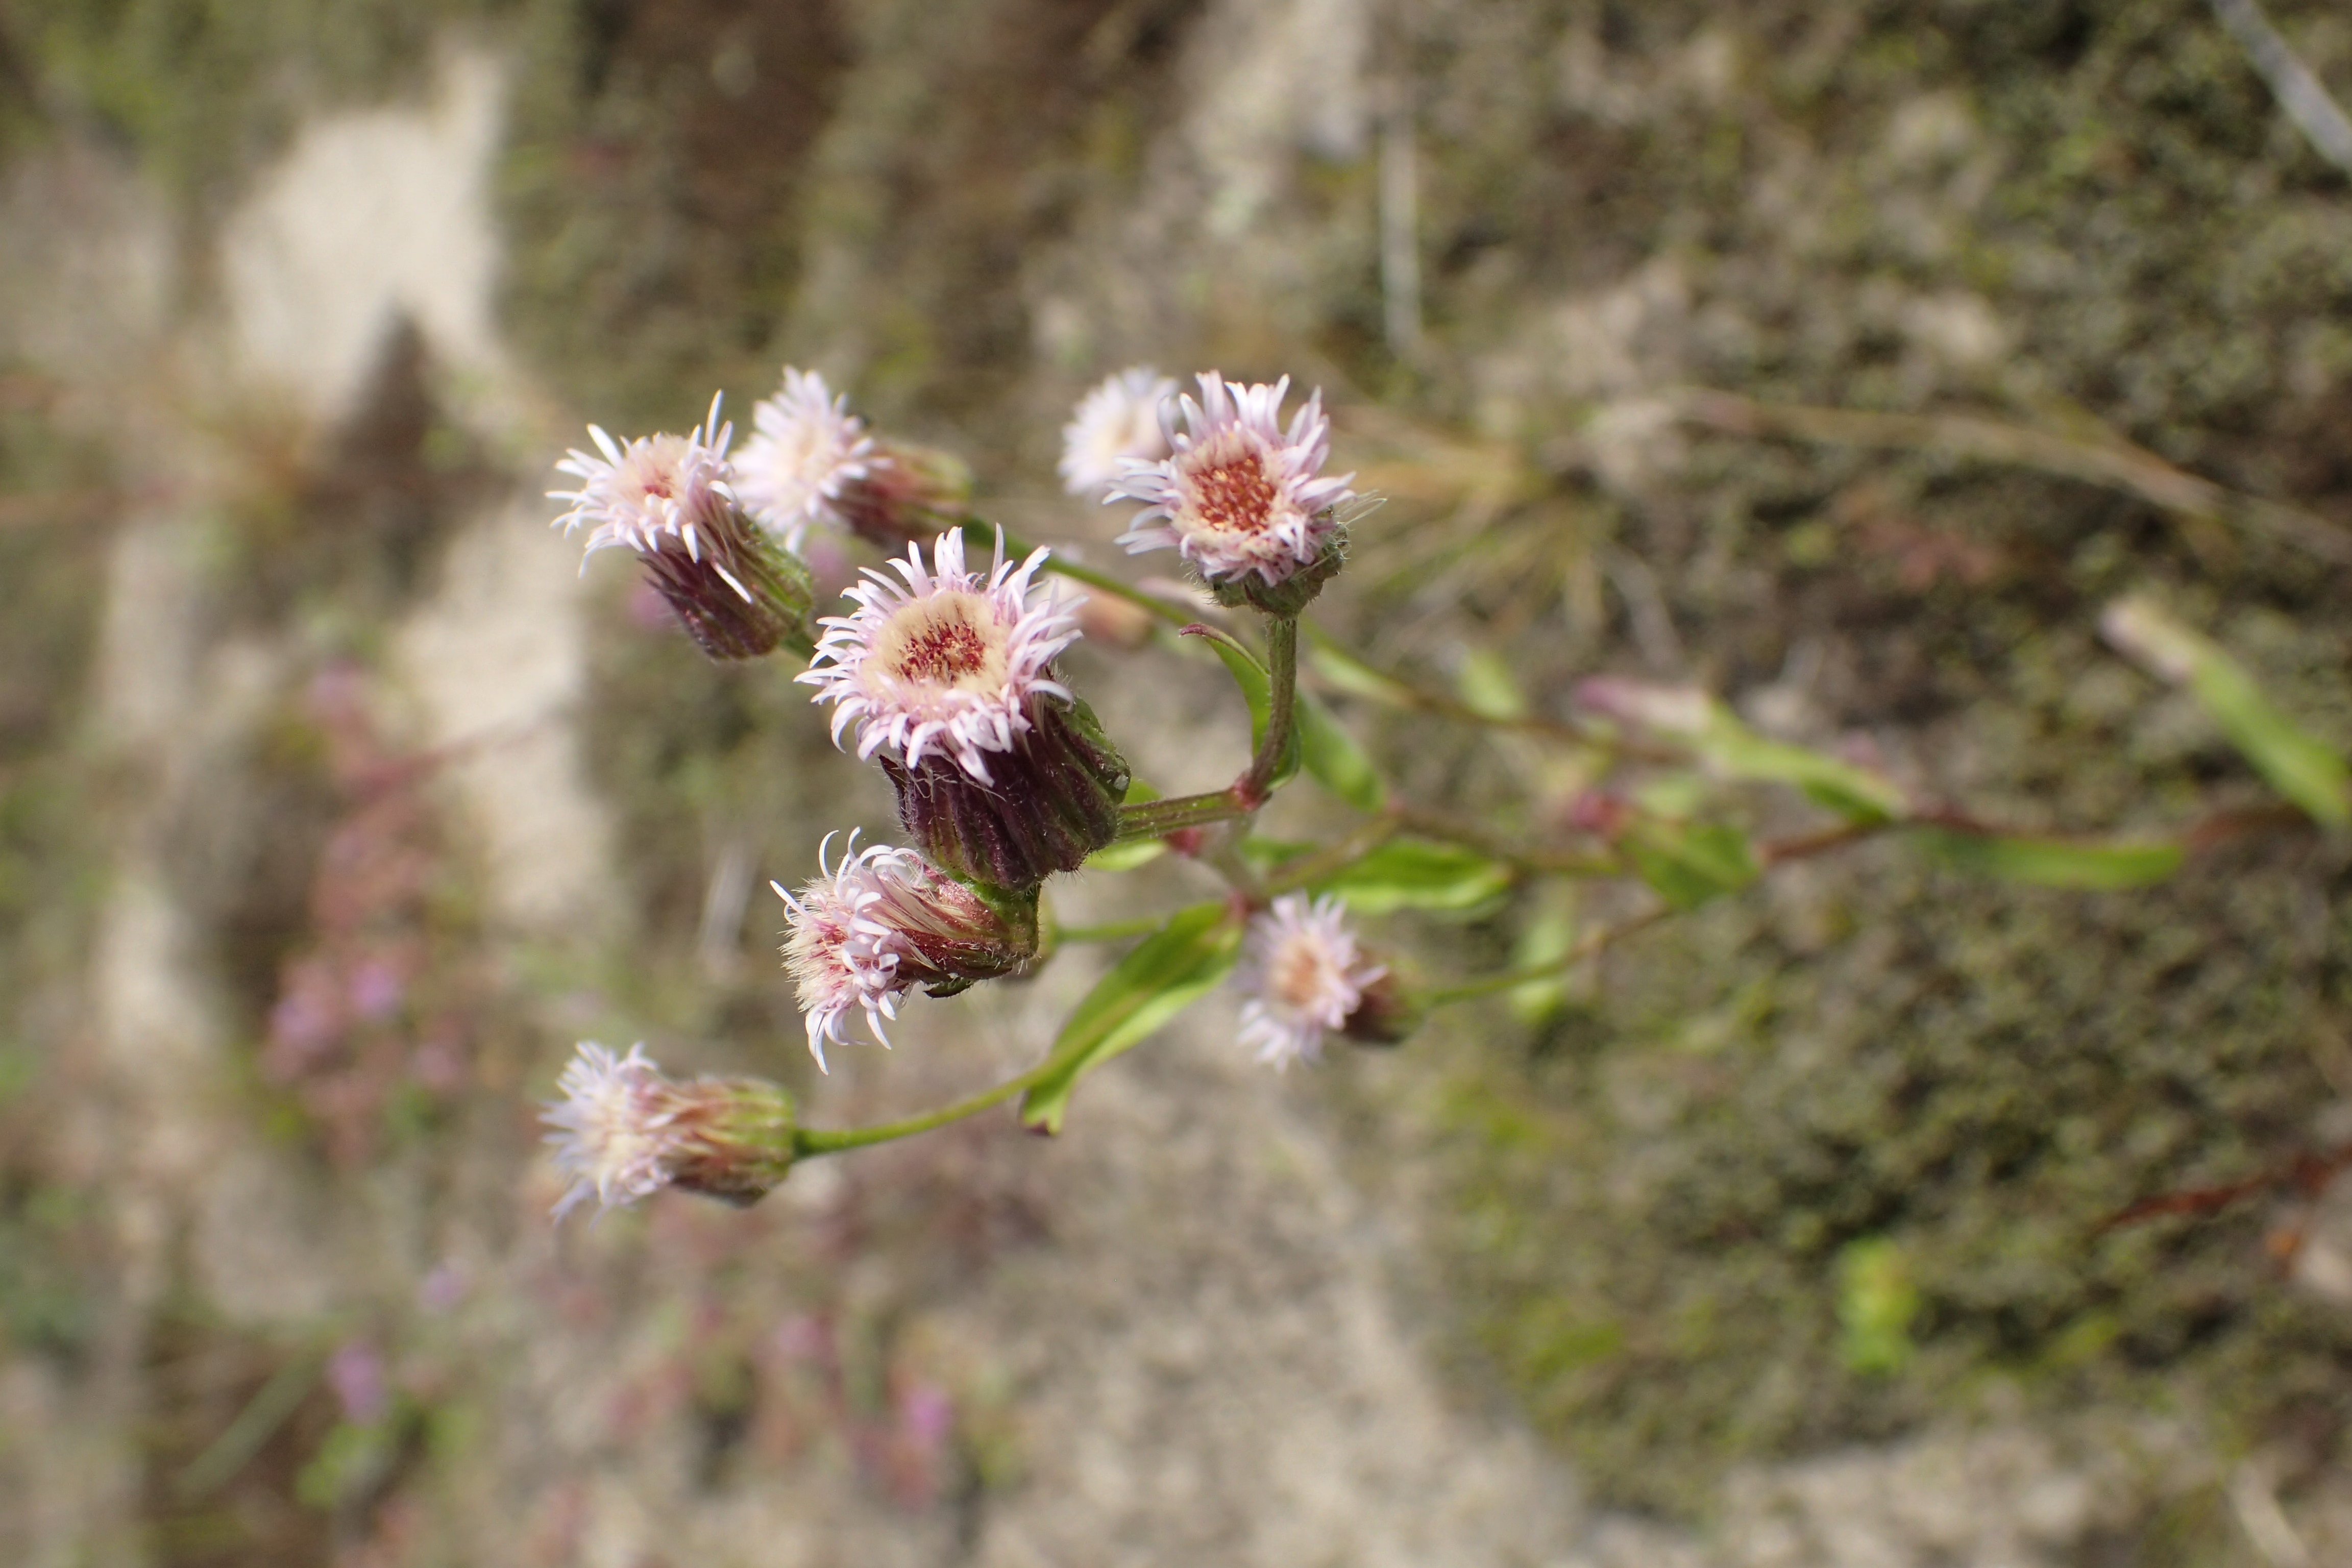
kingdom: Plantae
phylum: Tracheophyta
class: Magnoliopsida
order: Asterales
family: Asteraceae
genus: Erigeron
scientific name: Erigeron politus
